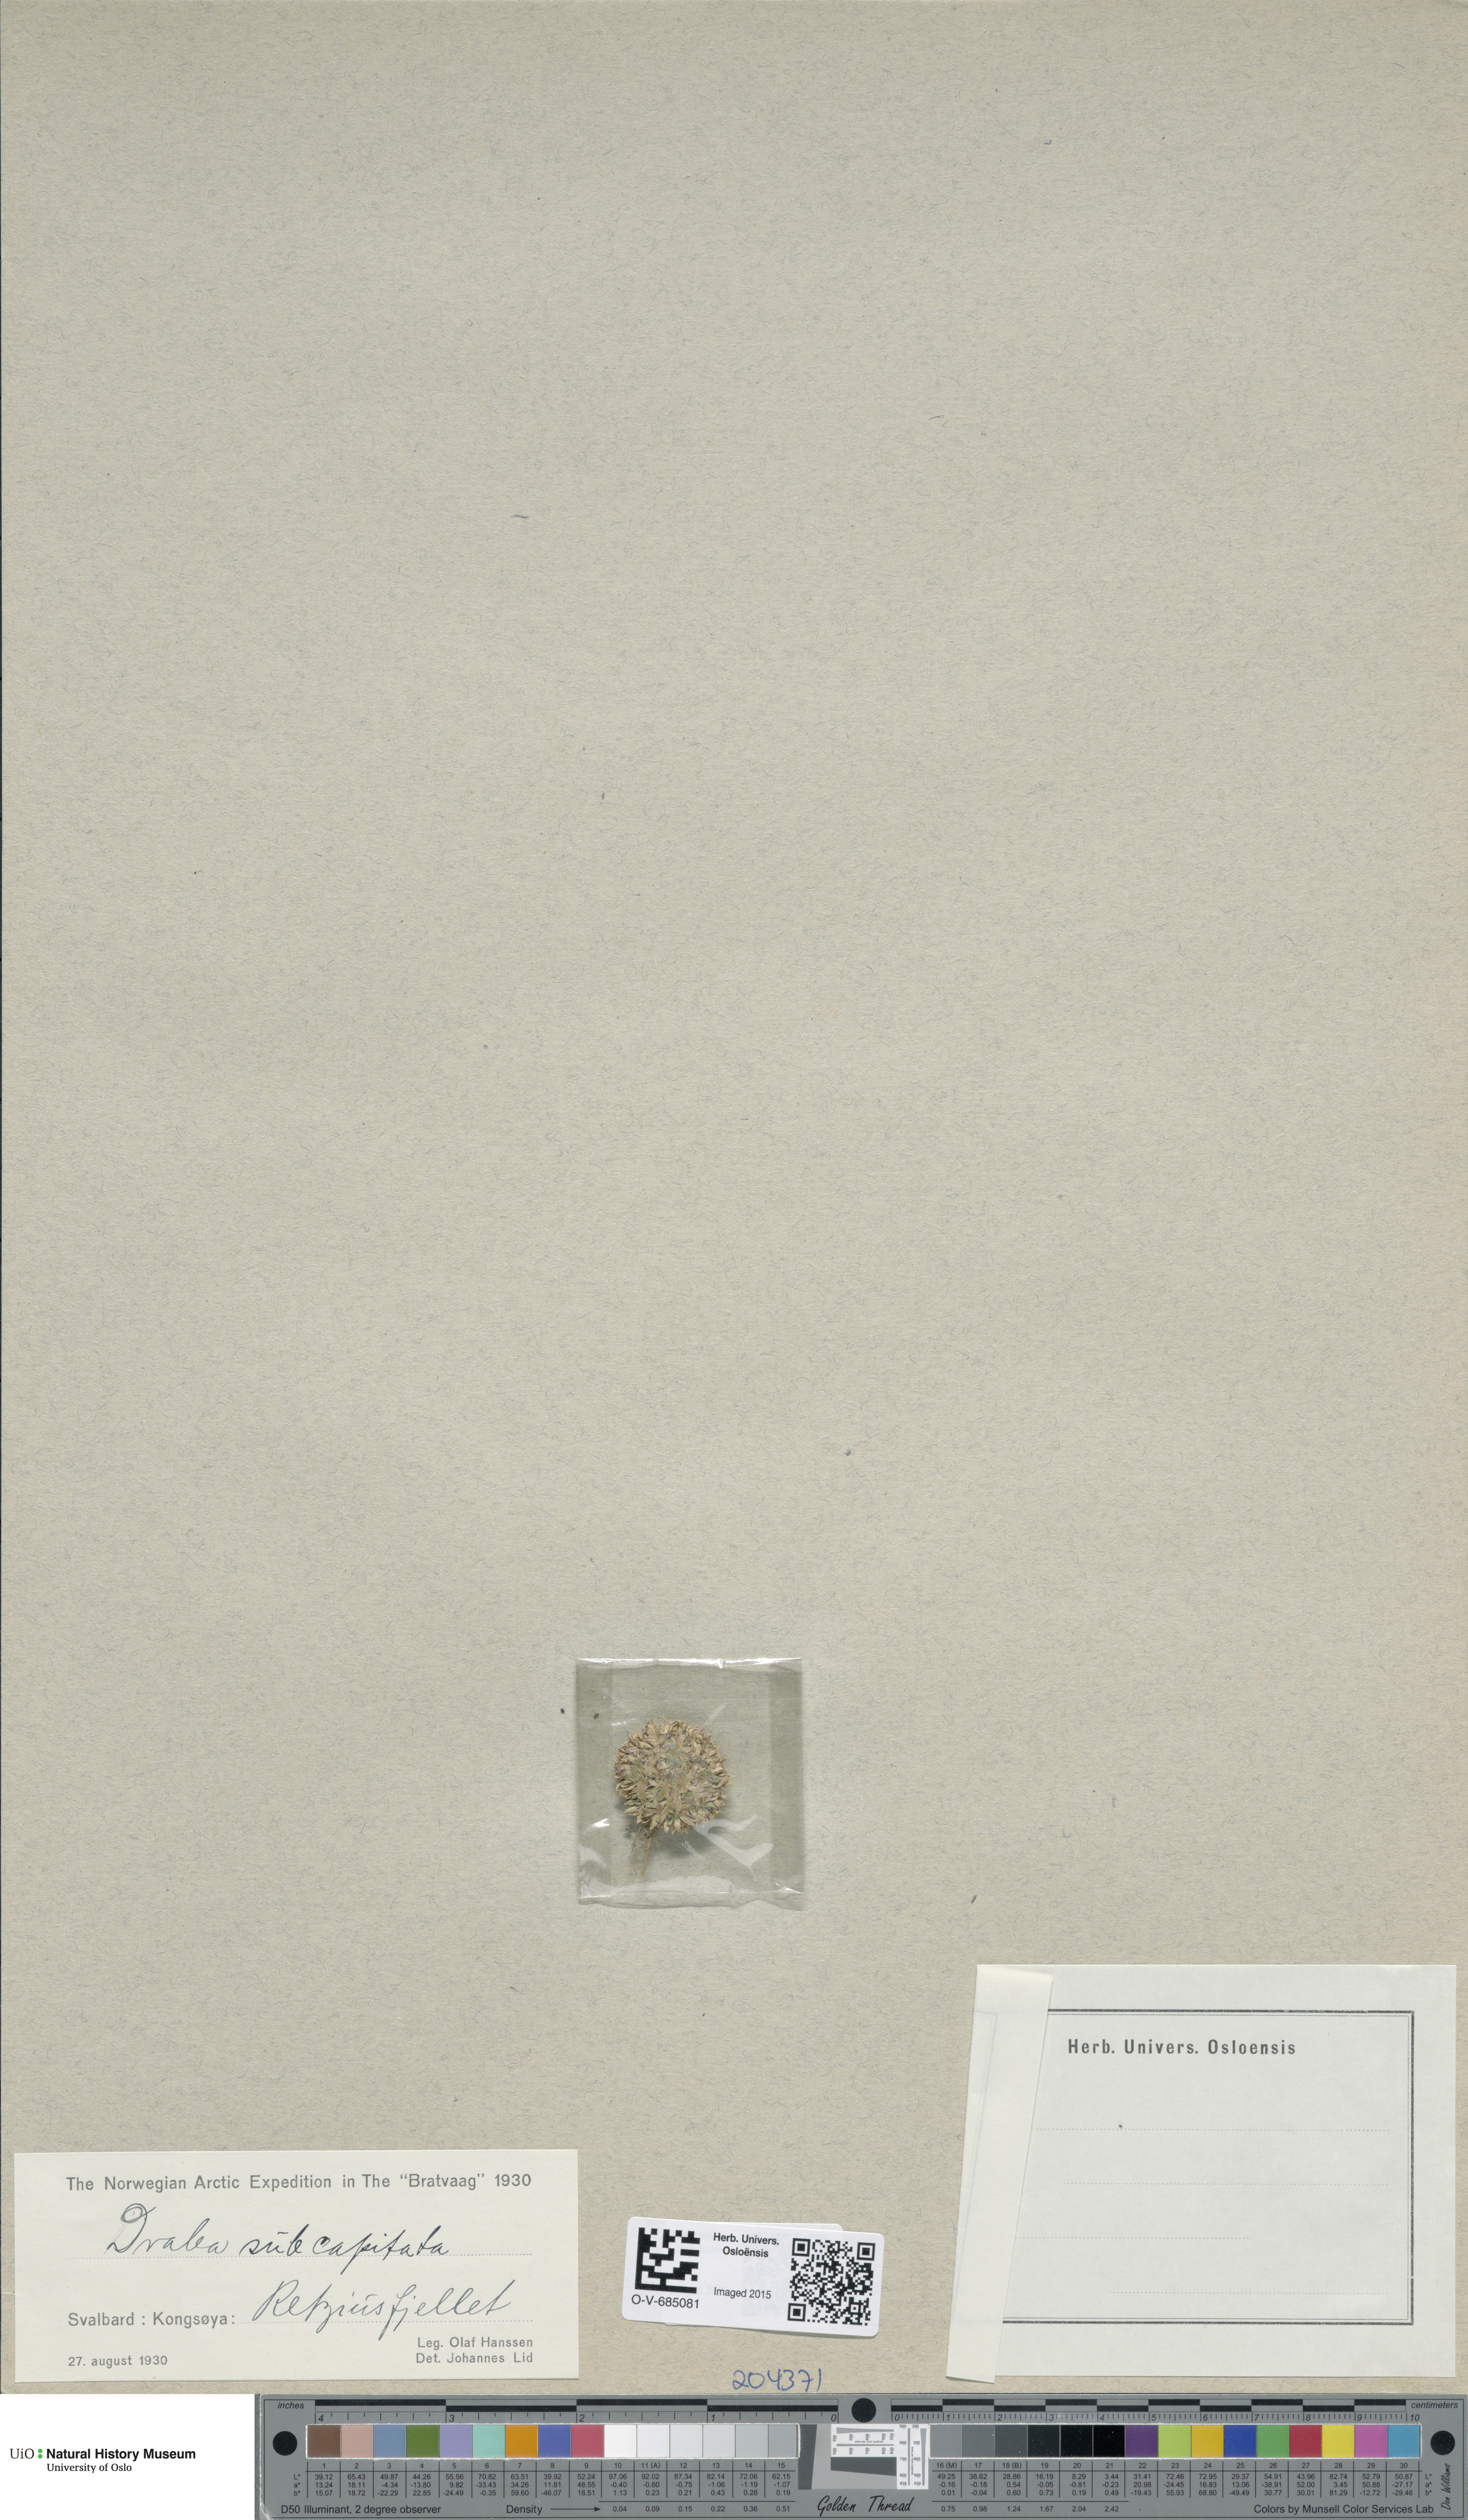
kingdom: Plantae
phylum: Tracheophyta
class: Magnoliopsida
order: Brassicales
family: Brassicaceae
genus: Draba
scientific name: Draba subcapitata
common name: Ellesmere island draba
